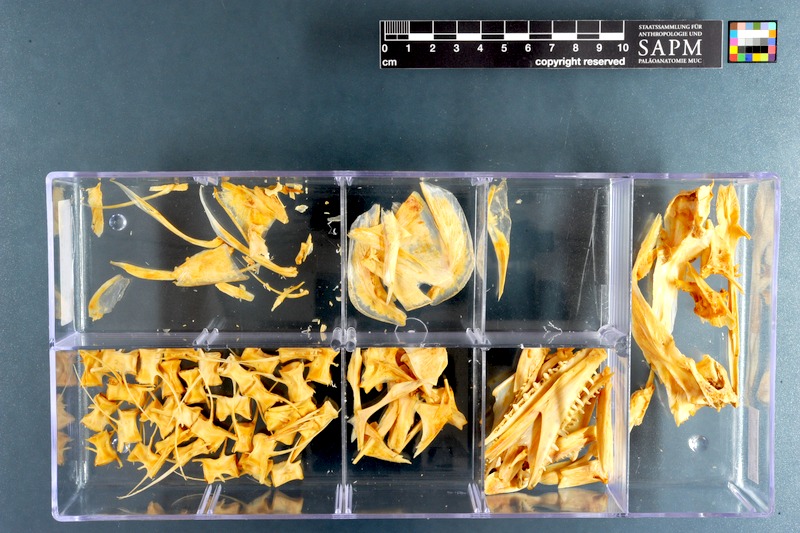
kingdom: Animalia
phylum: Chordata
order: Perciformes
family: Gempylidae
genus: Thyrsites
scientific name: Thyrsites atun
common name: Snoek
